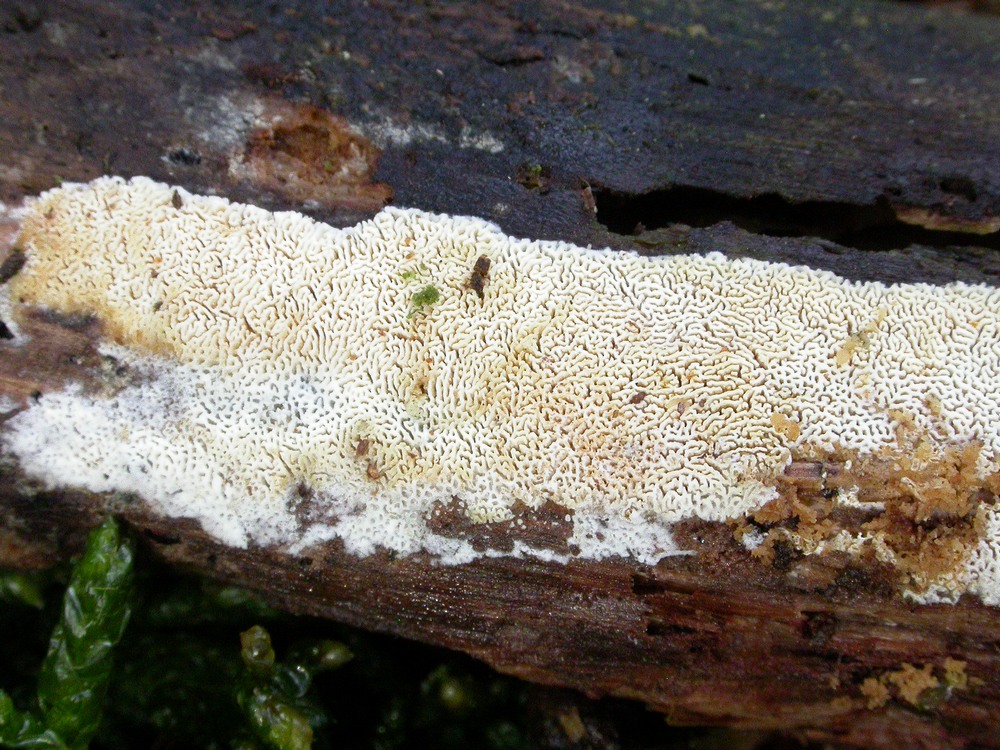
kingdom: Fungi
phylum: Basidiomycota
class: Agaricomycetes
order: Hymenochaetales
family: Schizoporaceae
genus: Xylodon
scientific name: Xylodon subtropicus
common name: labyrint-tandsvamp
